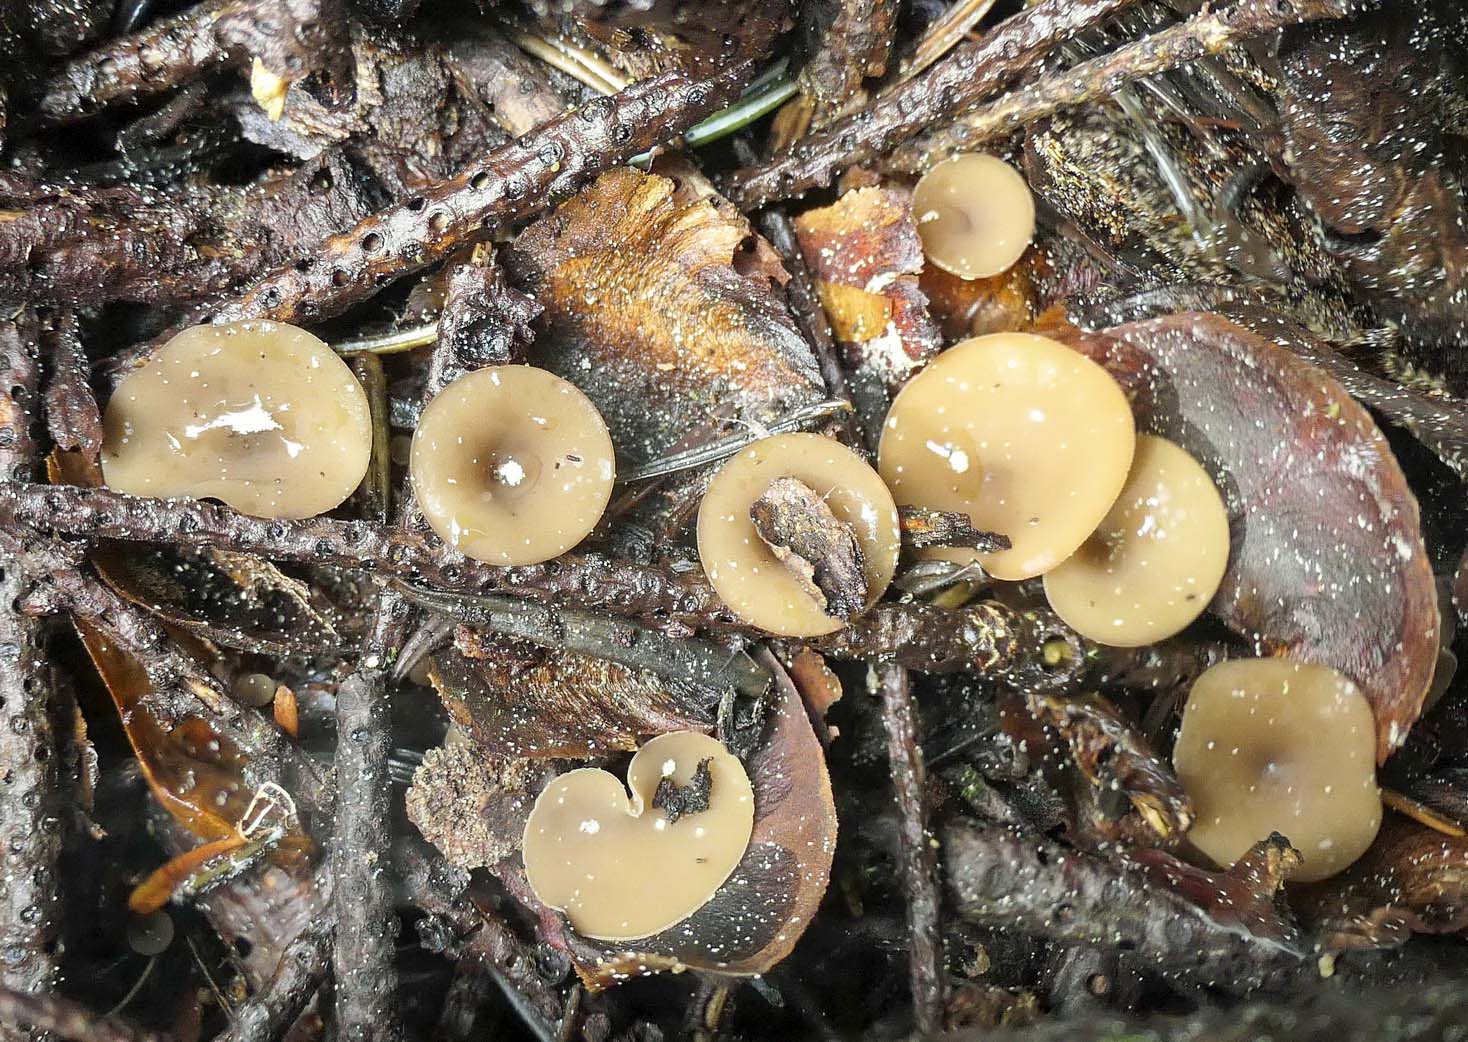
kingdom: Fungi
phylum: Ascomycota
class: Leotiomycetes
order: Helotiales
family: Sclerotiniaceae
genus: Ciboria
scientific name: Ciboria rufofusca
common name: kogleskæl-knoldskive
